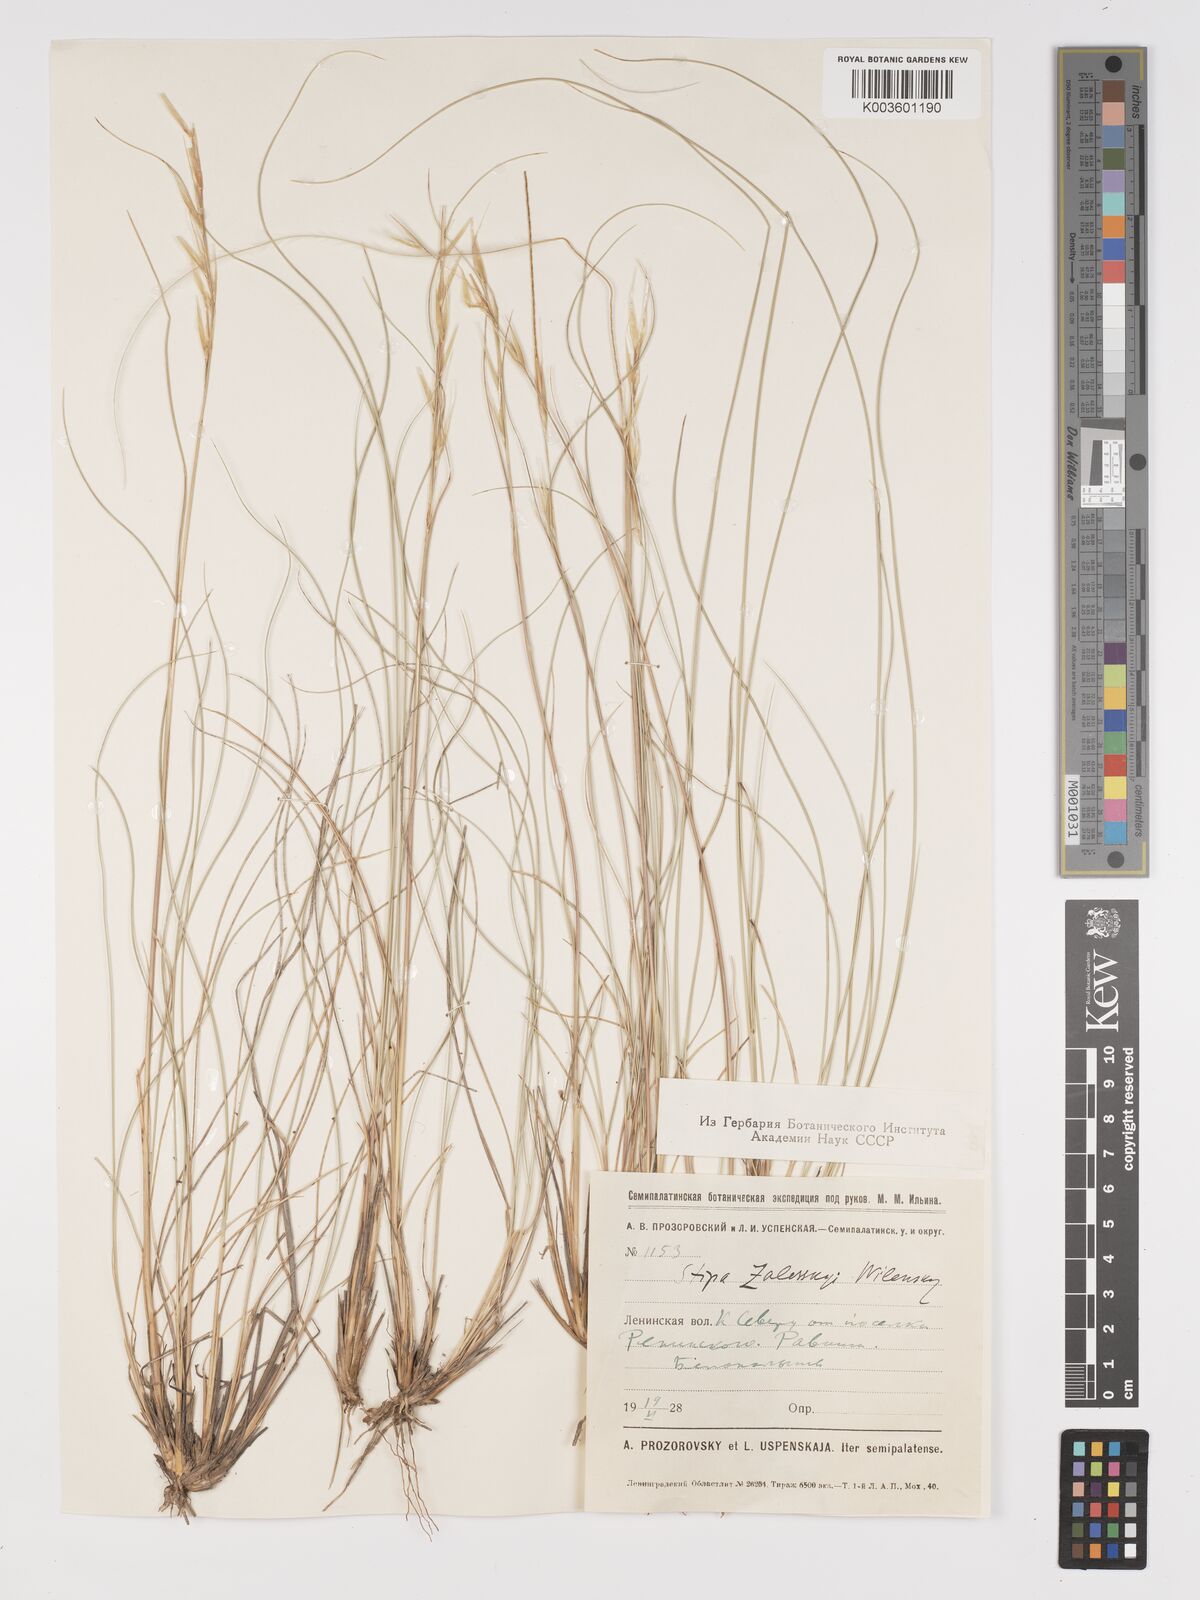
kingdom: Plantae
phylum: Tracheophyta
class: Liliopsida
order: Poales
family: Poaceae
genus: Stipa
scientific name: Stipa
